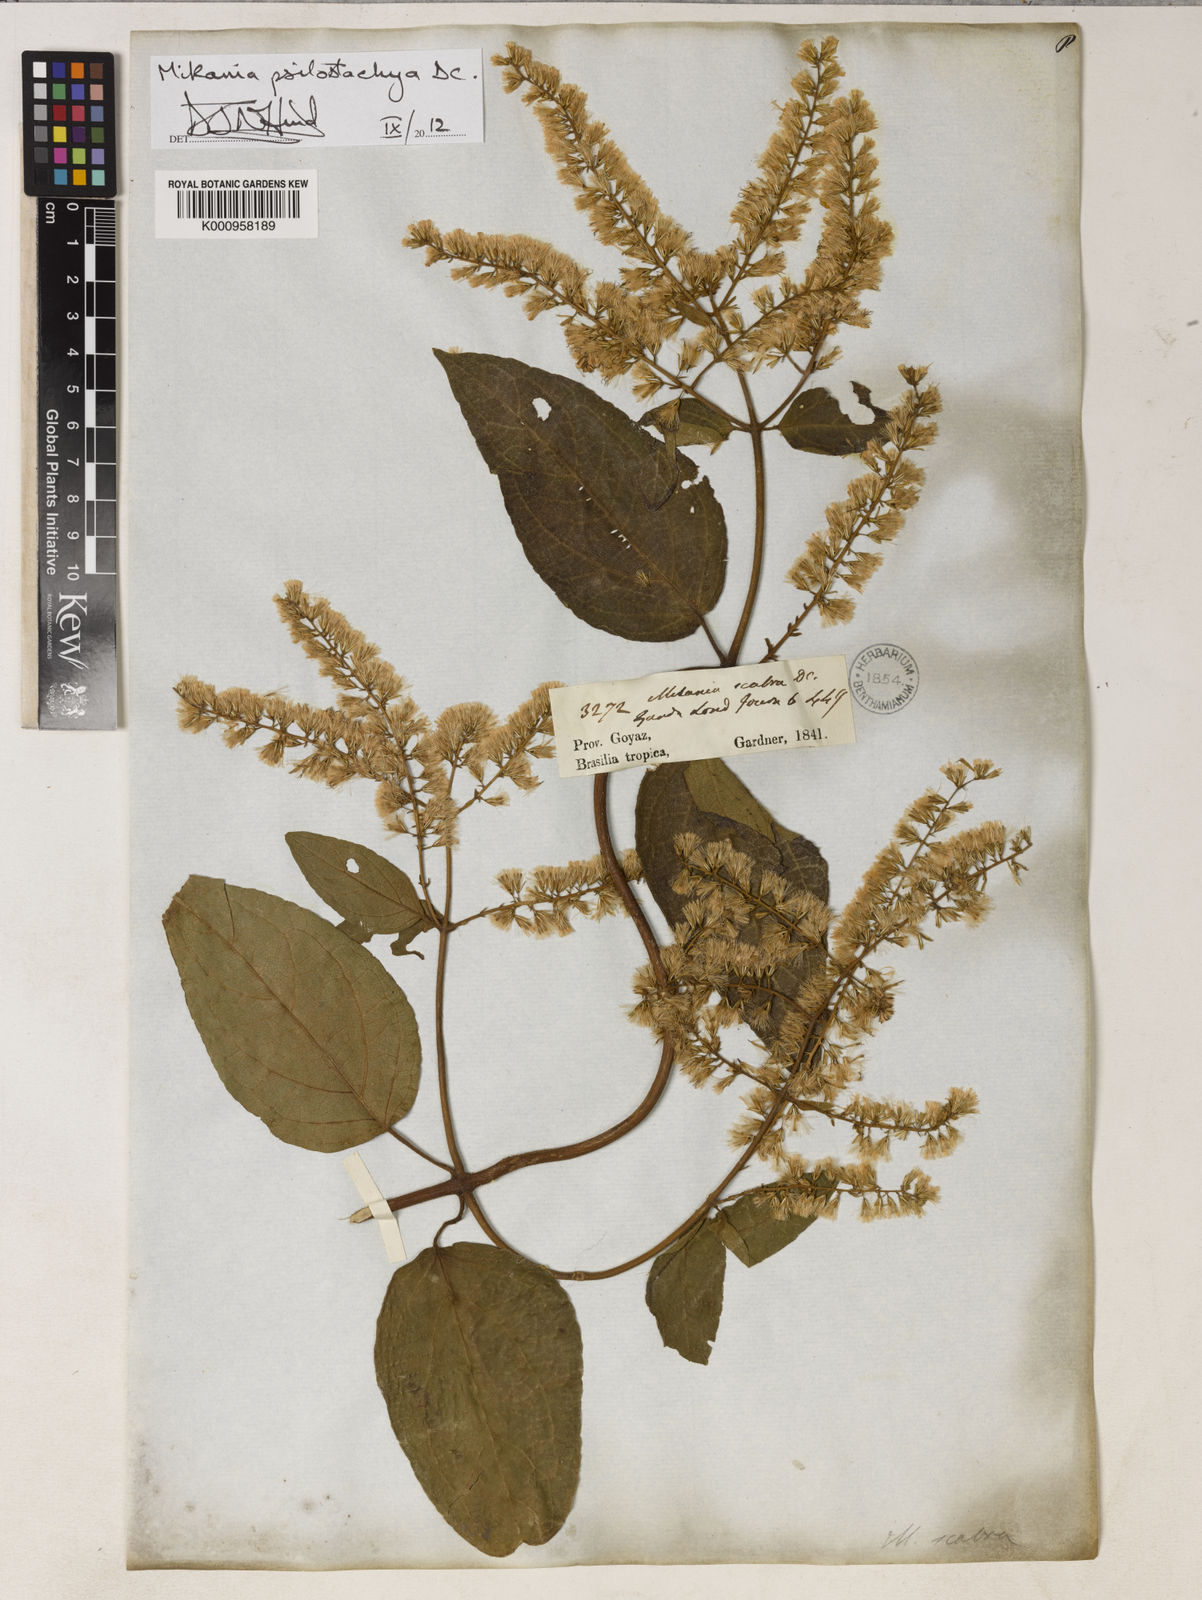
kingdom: Plantae
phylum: Tracheophyta
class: Magnoliopsida
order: Asterales
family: Asteraceae
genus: Mikania
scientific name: Mikania psilostachya
